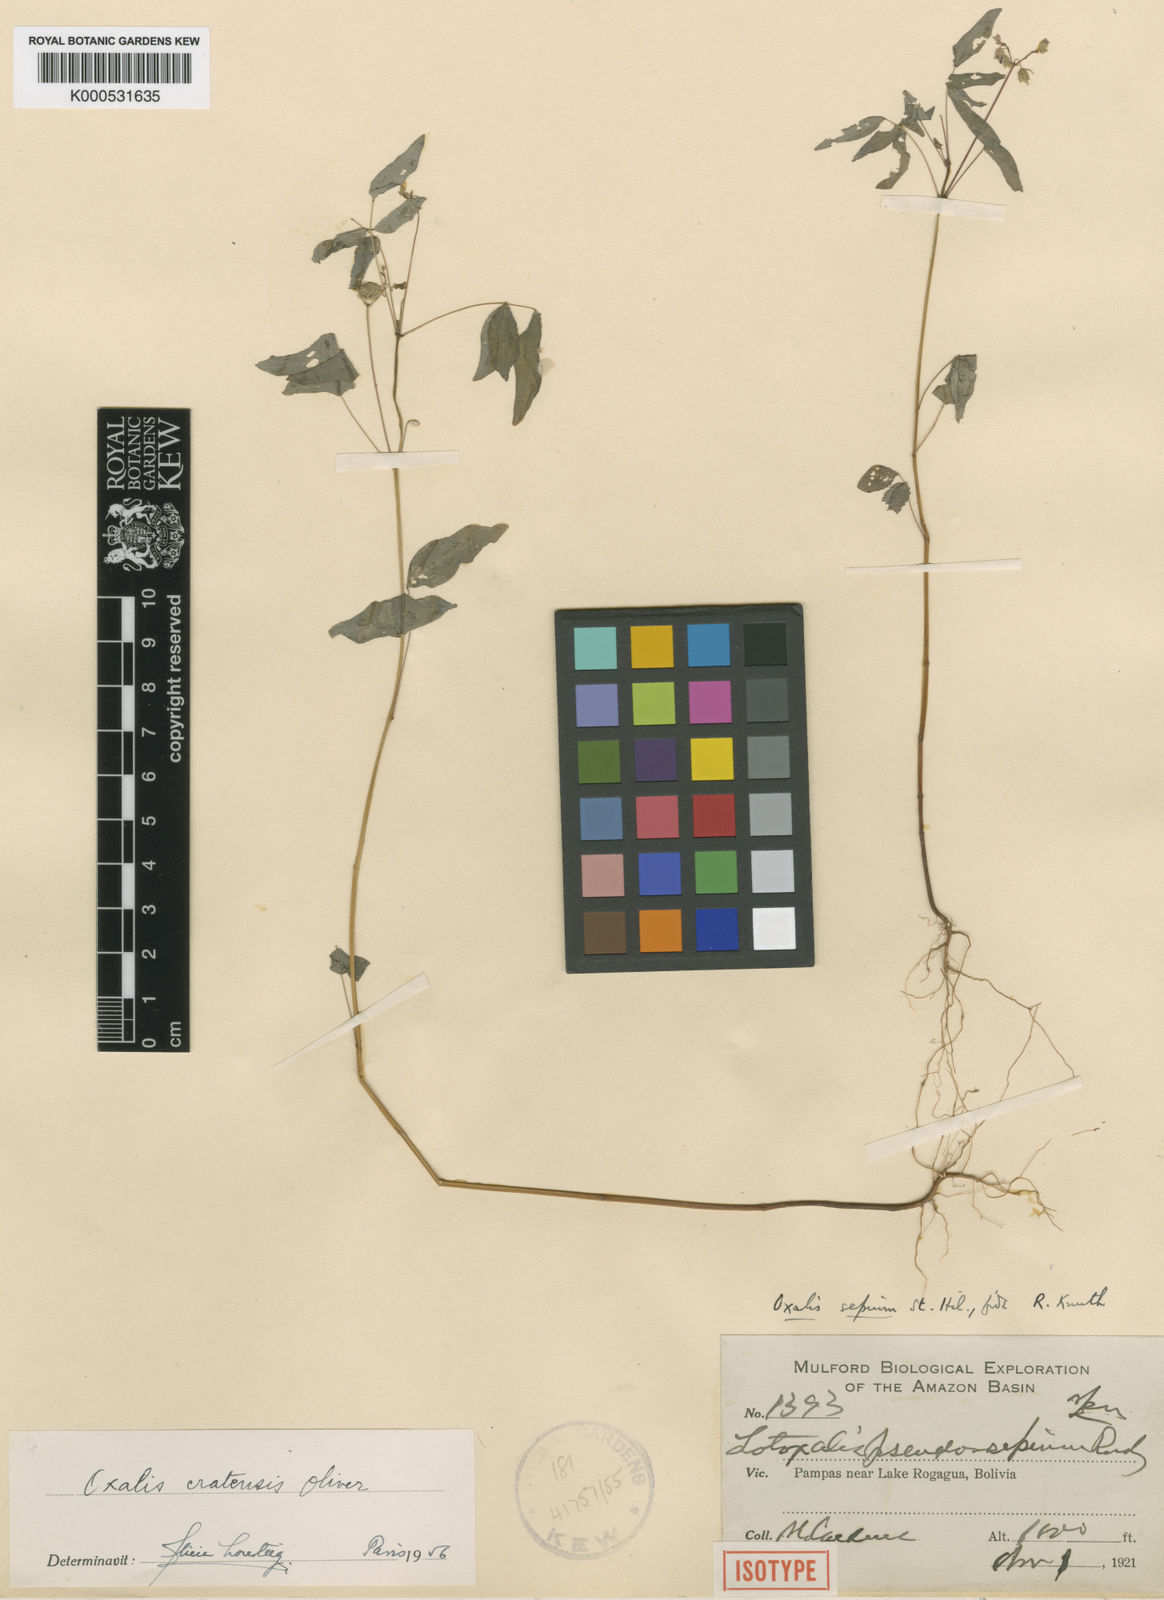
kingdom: Plantae
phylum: Tracheophyta
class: Magnoliopsida
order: Oxalidales
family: Oxalidaceae
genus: Oxalis
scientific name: Oxalis
